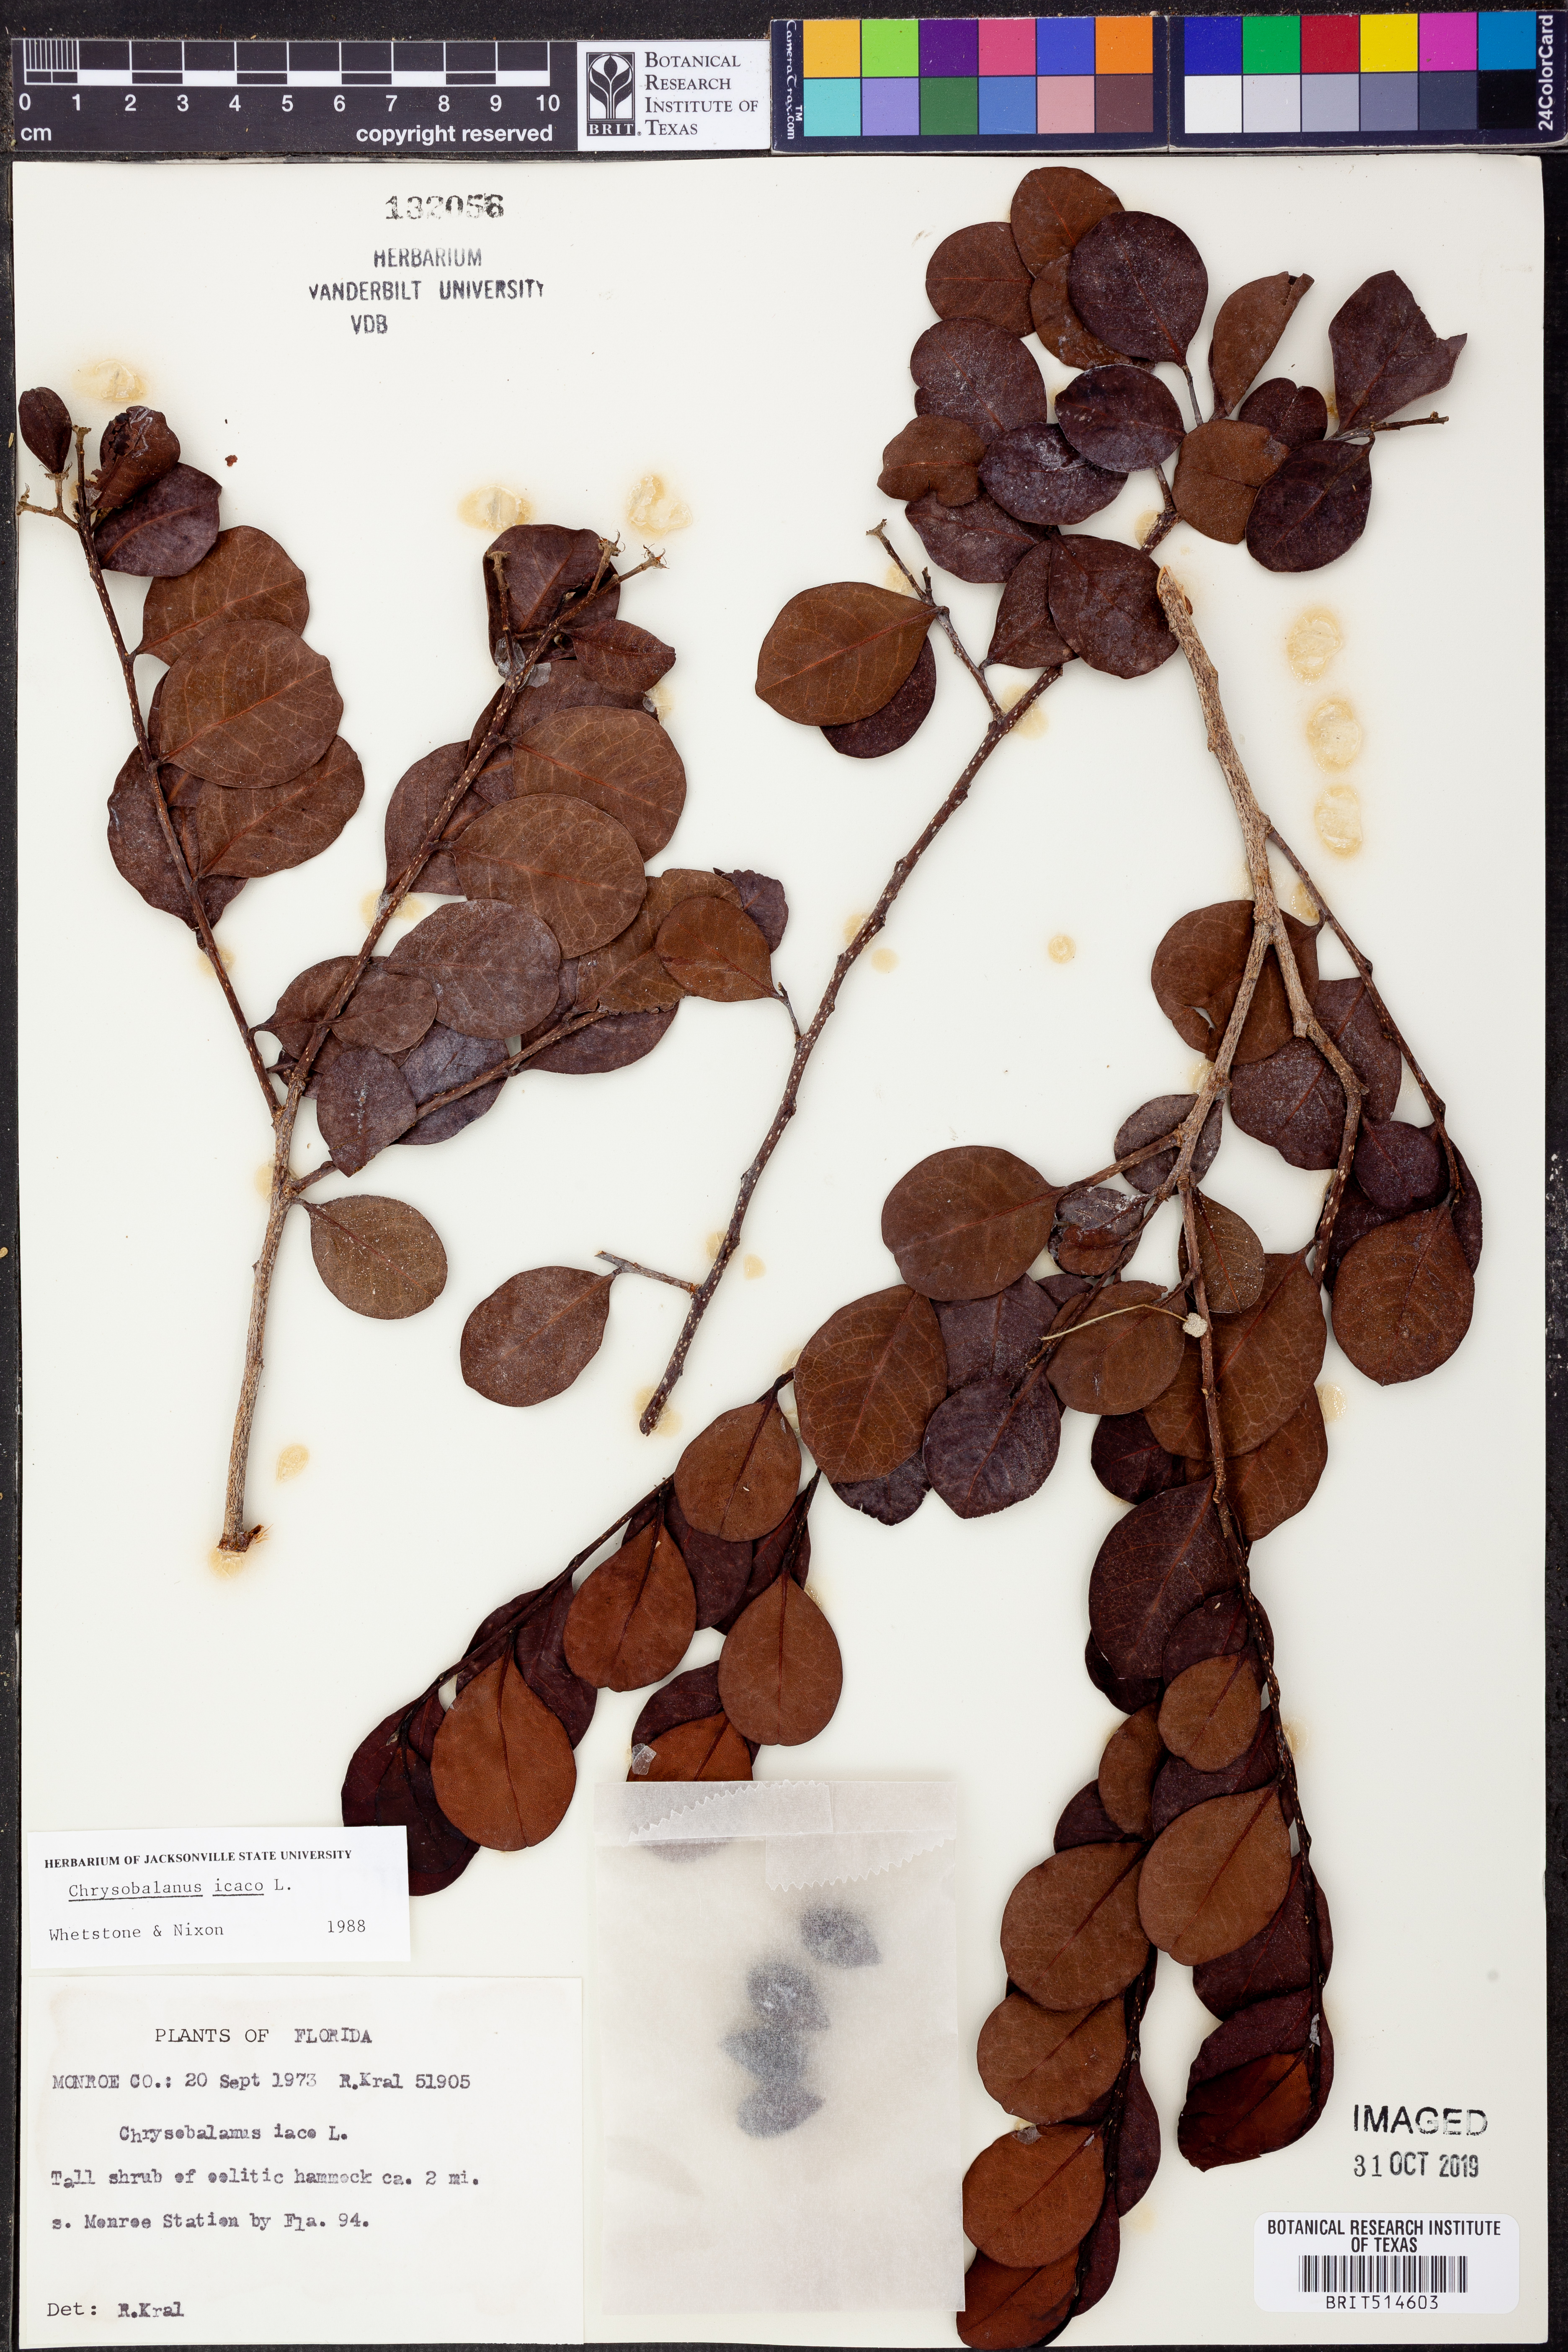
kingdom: Plantae
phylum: Tracheophyta
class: Magnoliopsida
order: Malpighiales
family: Chrysobalanaceae
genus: Chrysobalanus
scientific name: Chrysobalanus icaco
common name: Coco plum
